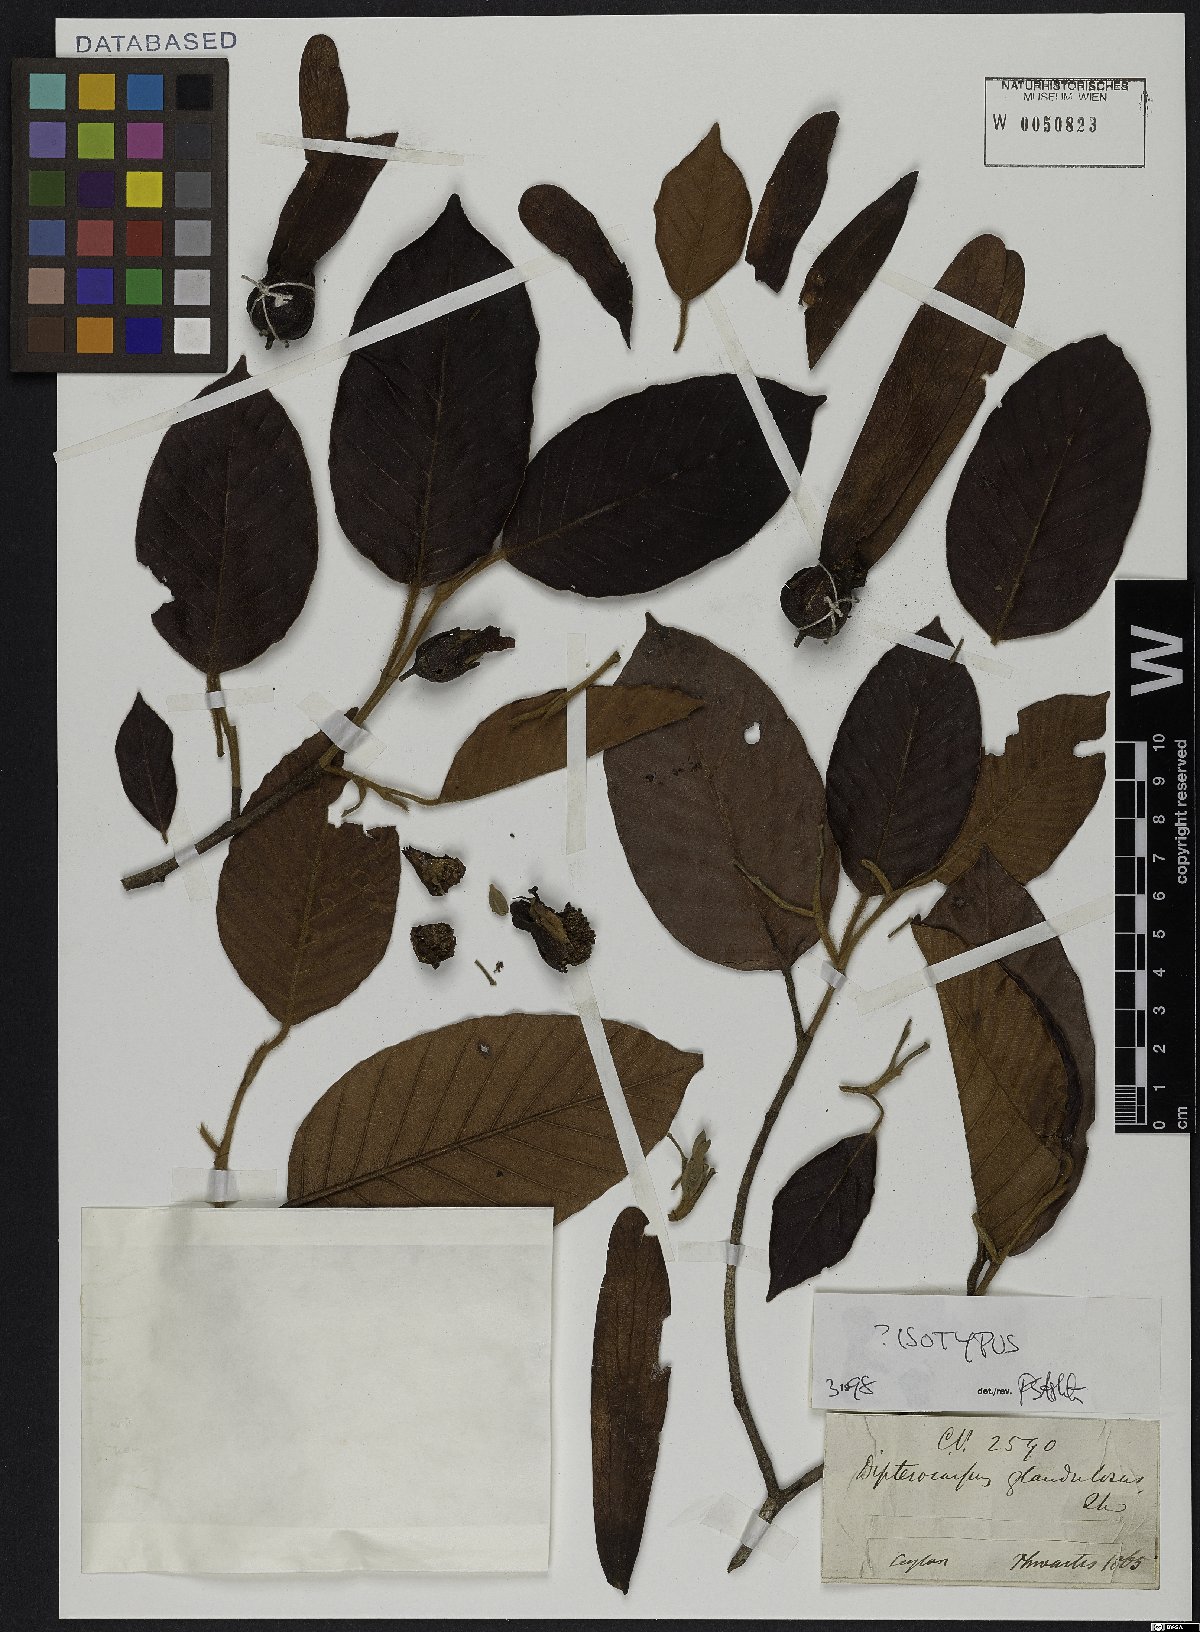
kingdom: Plantae
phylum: Tracheophyta
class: Magnoliopsida
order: Malvales
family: Dipterocarpaceae
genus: Dipterocarpus
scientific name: Dipterocarpus glandulosus
